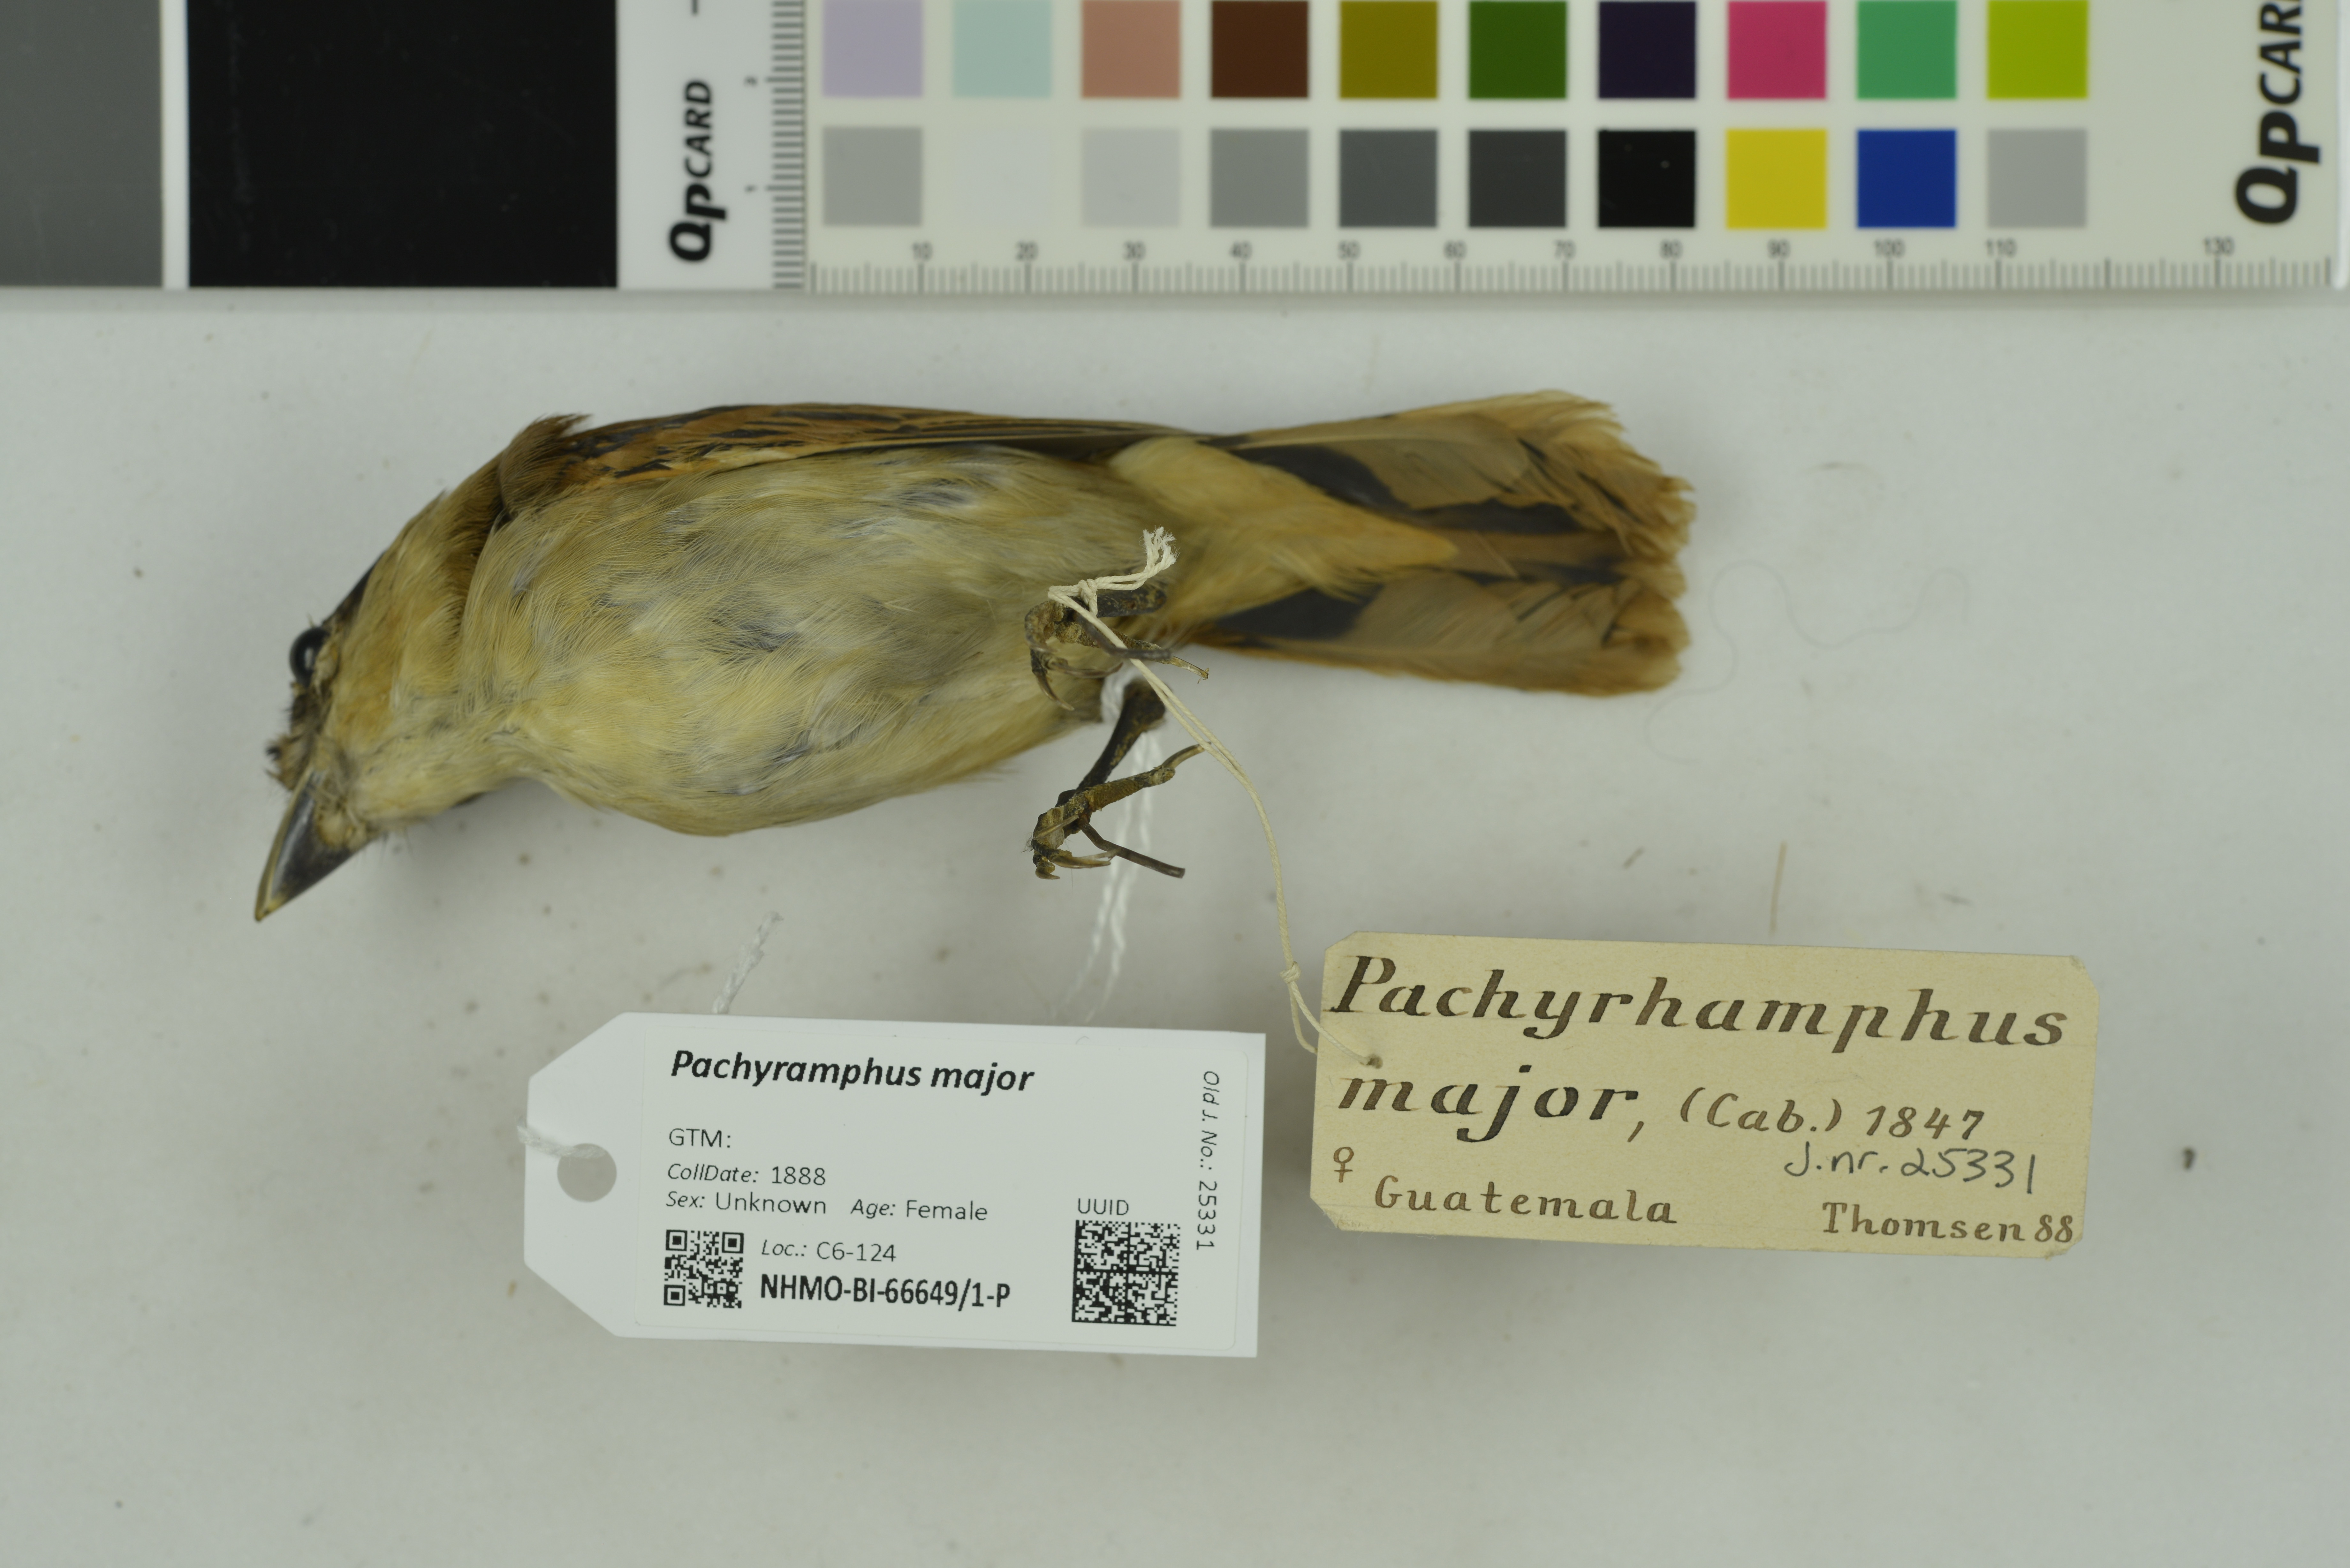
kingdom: Animalia
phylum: Chordata
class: Aves
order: Passeriformes
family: Cotingidae
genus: Pachyramphus
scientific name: Pachyramphus major
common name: Gray-collared becard
